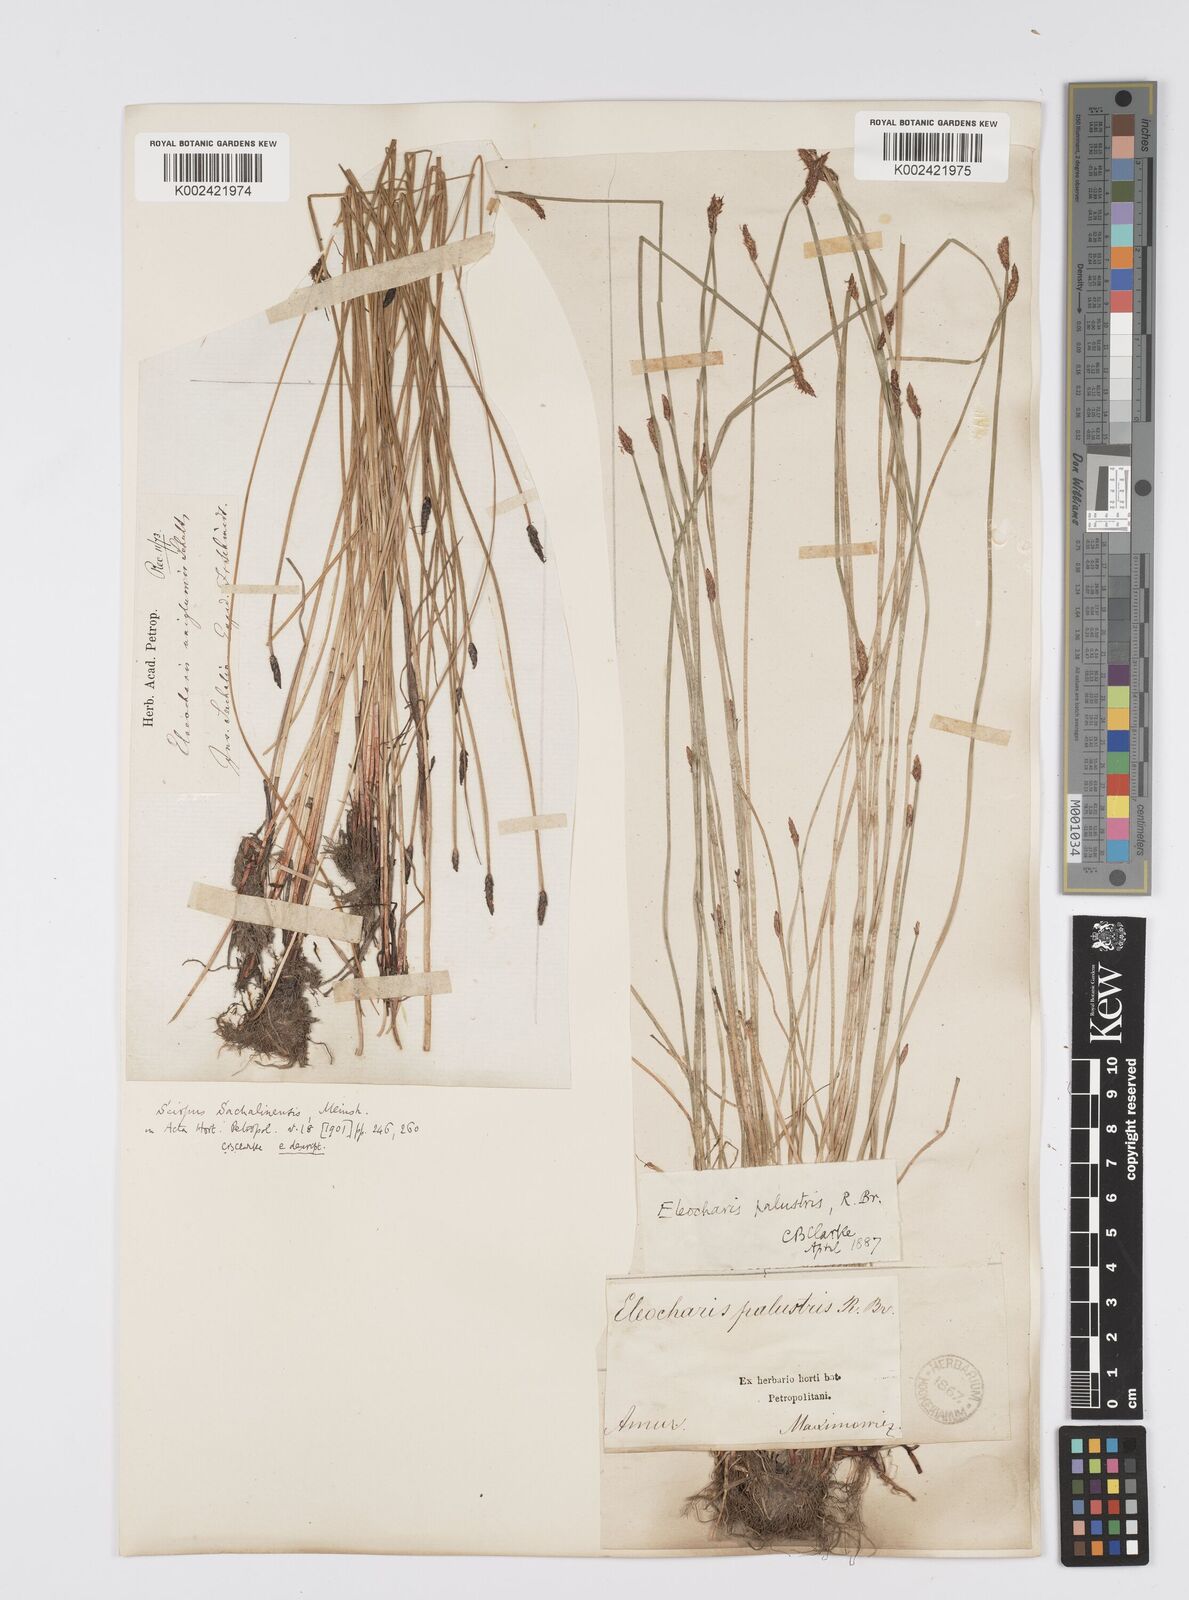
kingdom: Plantae
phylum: Tracheophyta
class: Liliopsida
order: Poales
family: Cyperaceae
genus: Eleocharis
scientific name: Eleocharis palustris
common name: Common spike-rush
